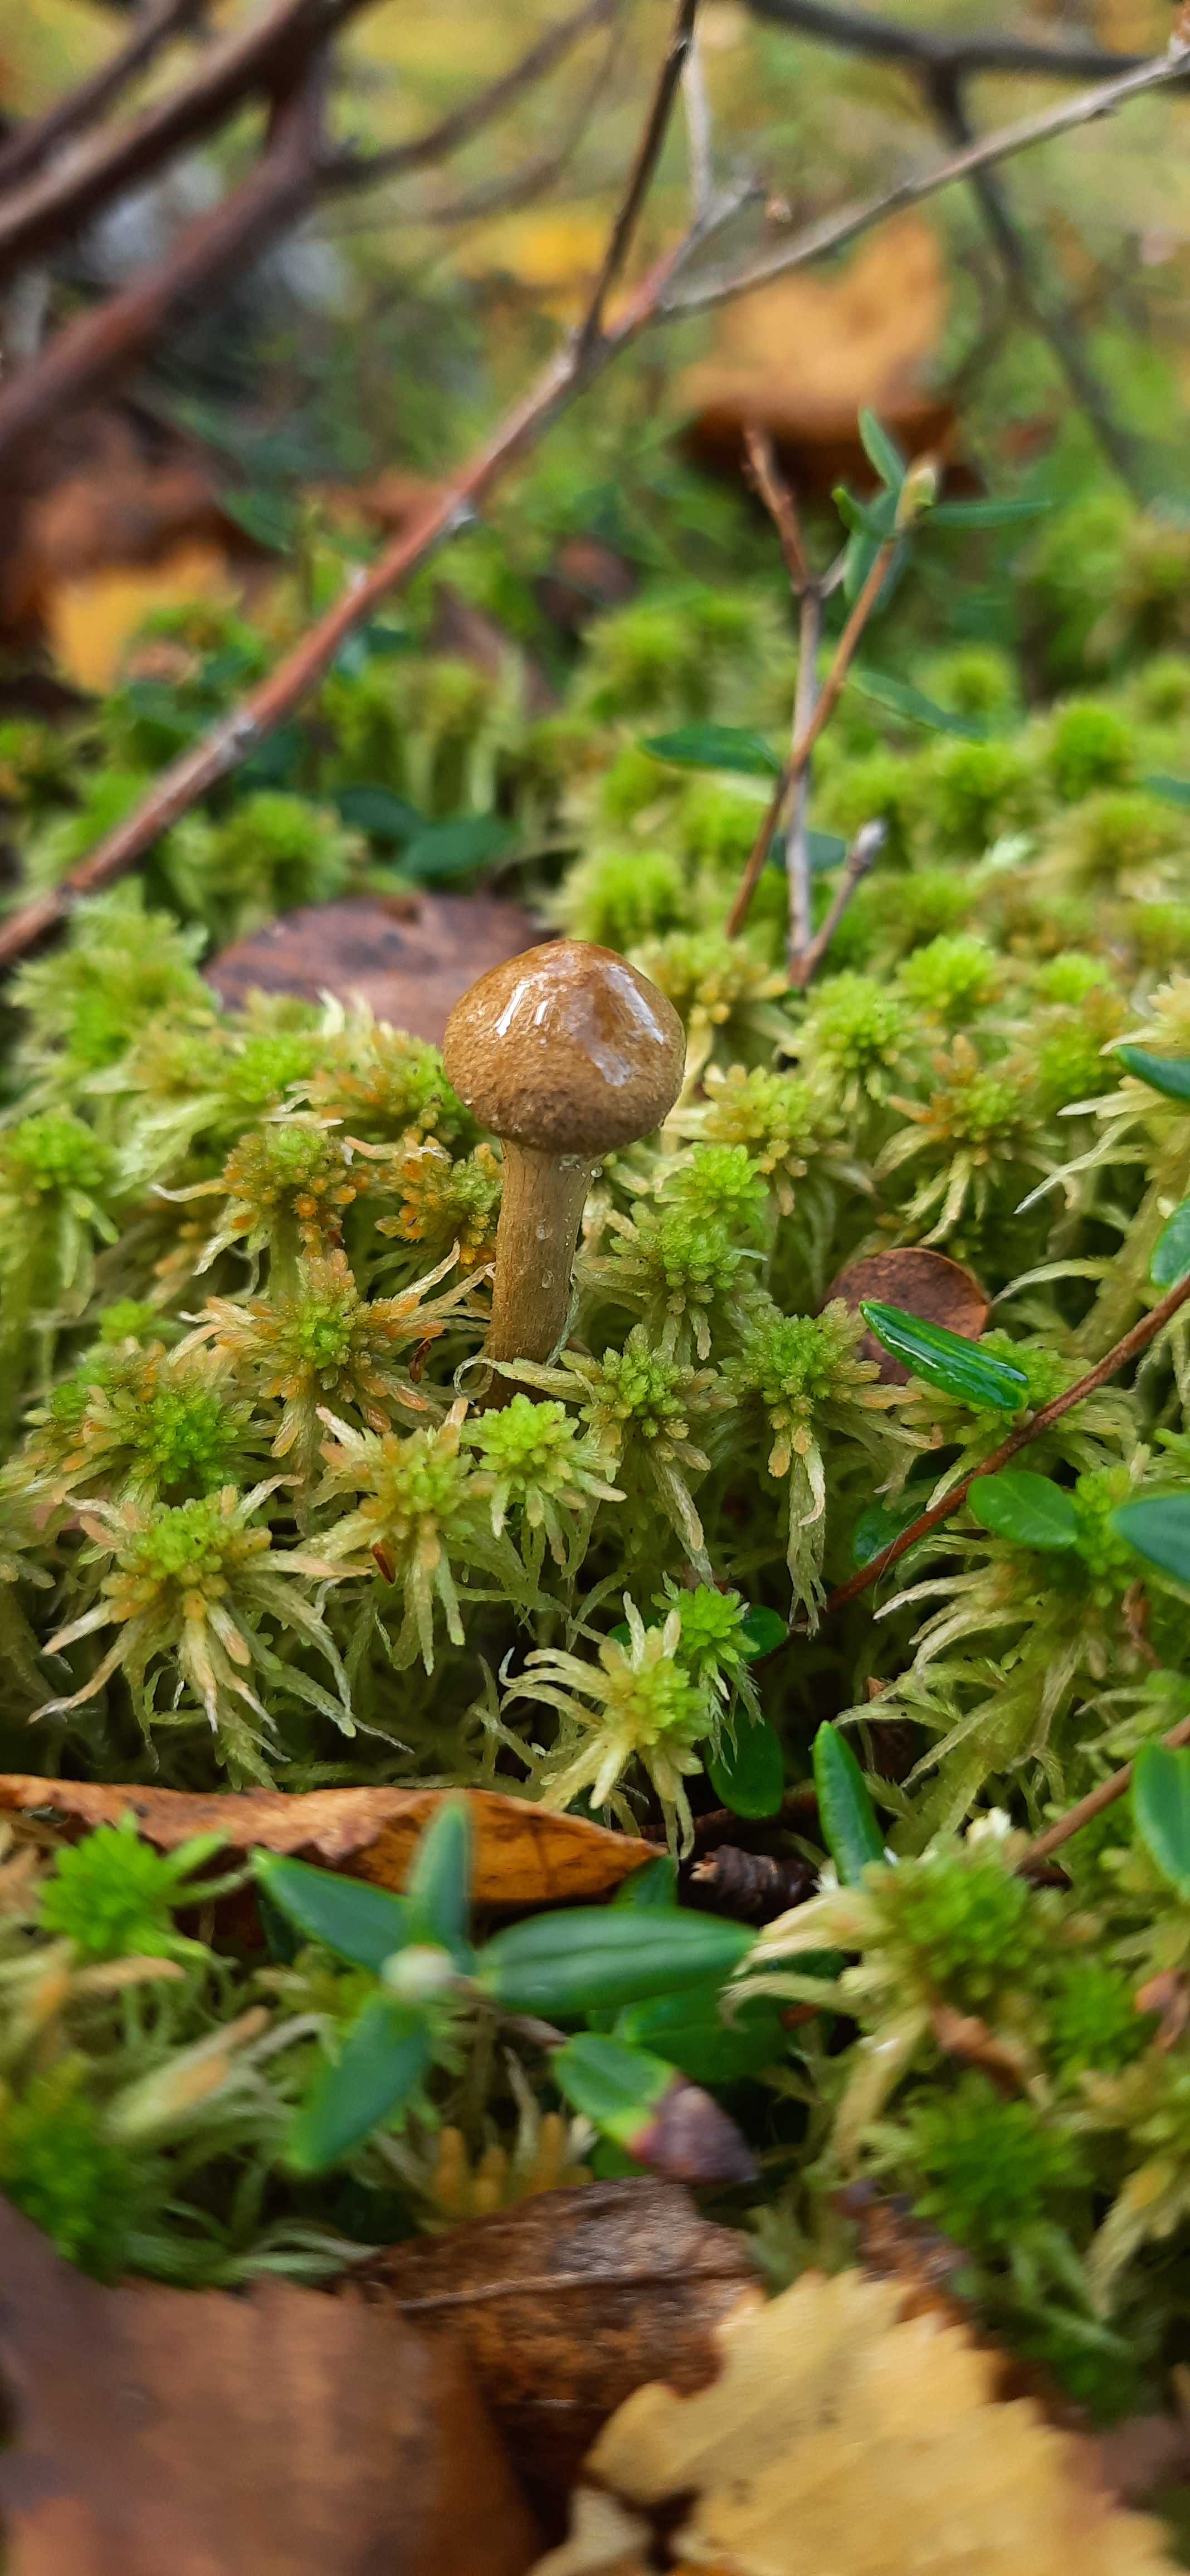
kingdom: Fungi
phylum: Basidiomycota
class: Agaricomycetes
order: Agaricales
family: Cortinariaceae
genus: Cortinarius
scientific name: Cortinarius
